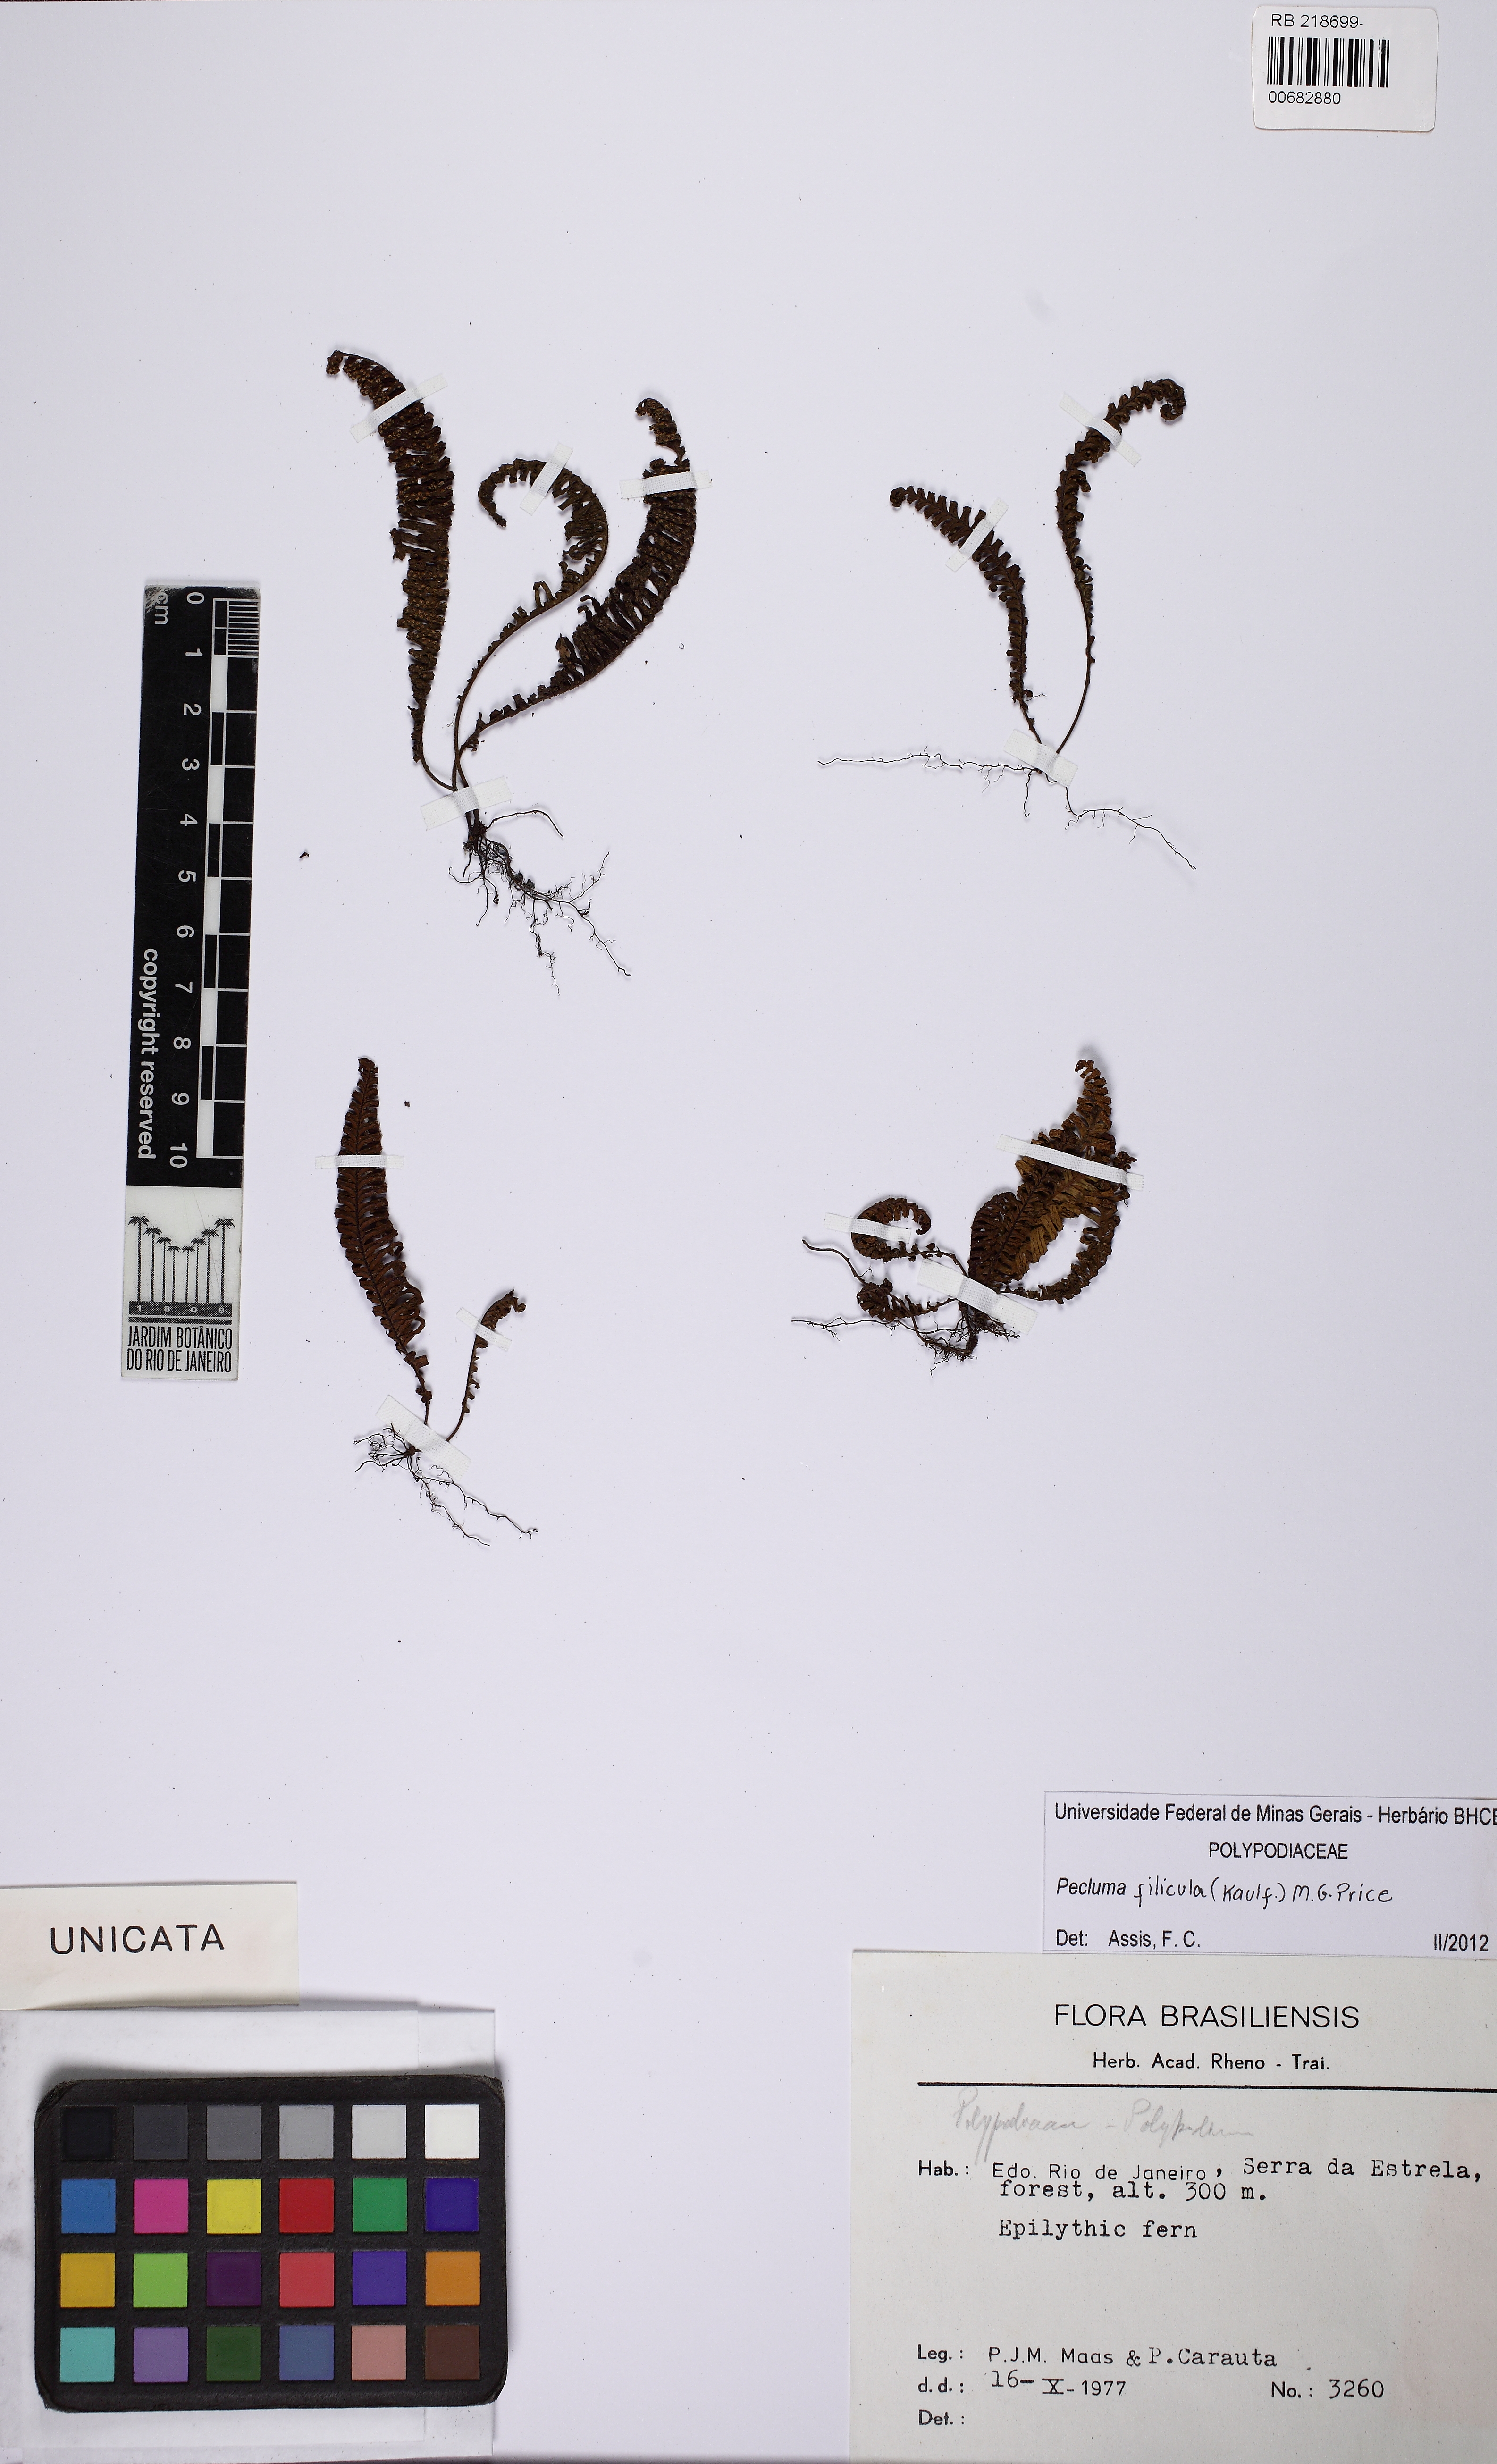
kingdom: Plantae
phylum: Tracheophyta
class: Polypodiopsida
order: Polypodiales
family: Polypodiaceae
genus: Pecluma
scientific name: Pecluma filicula
